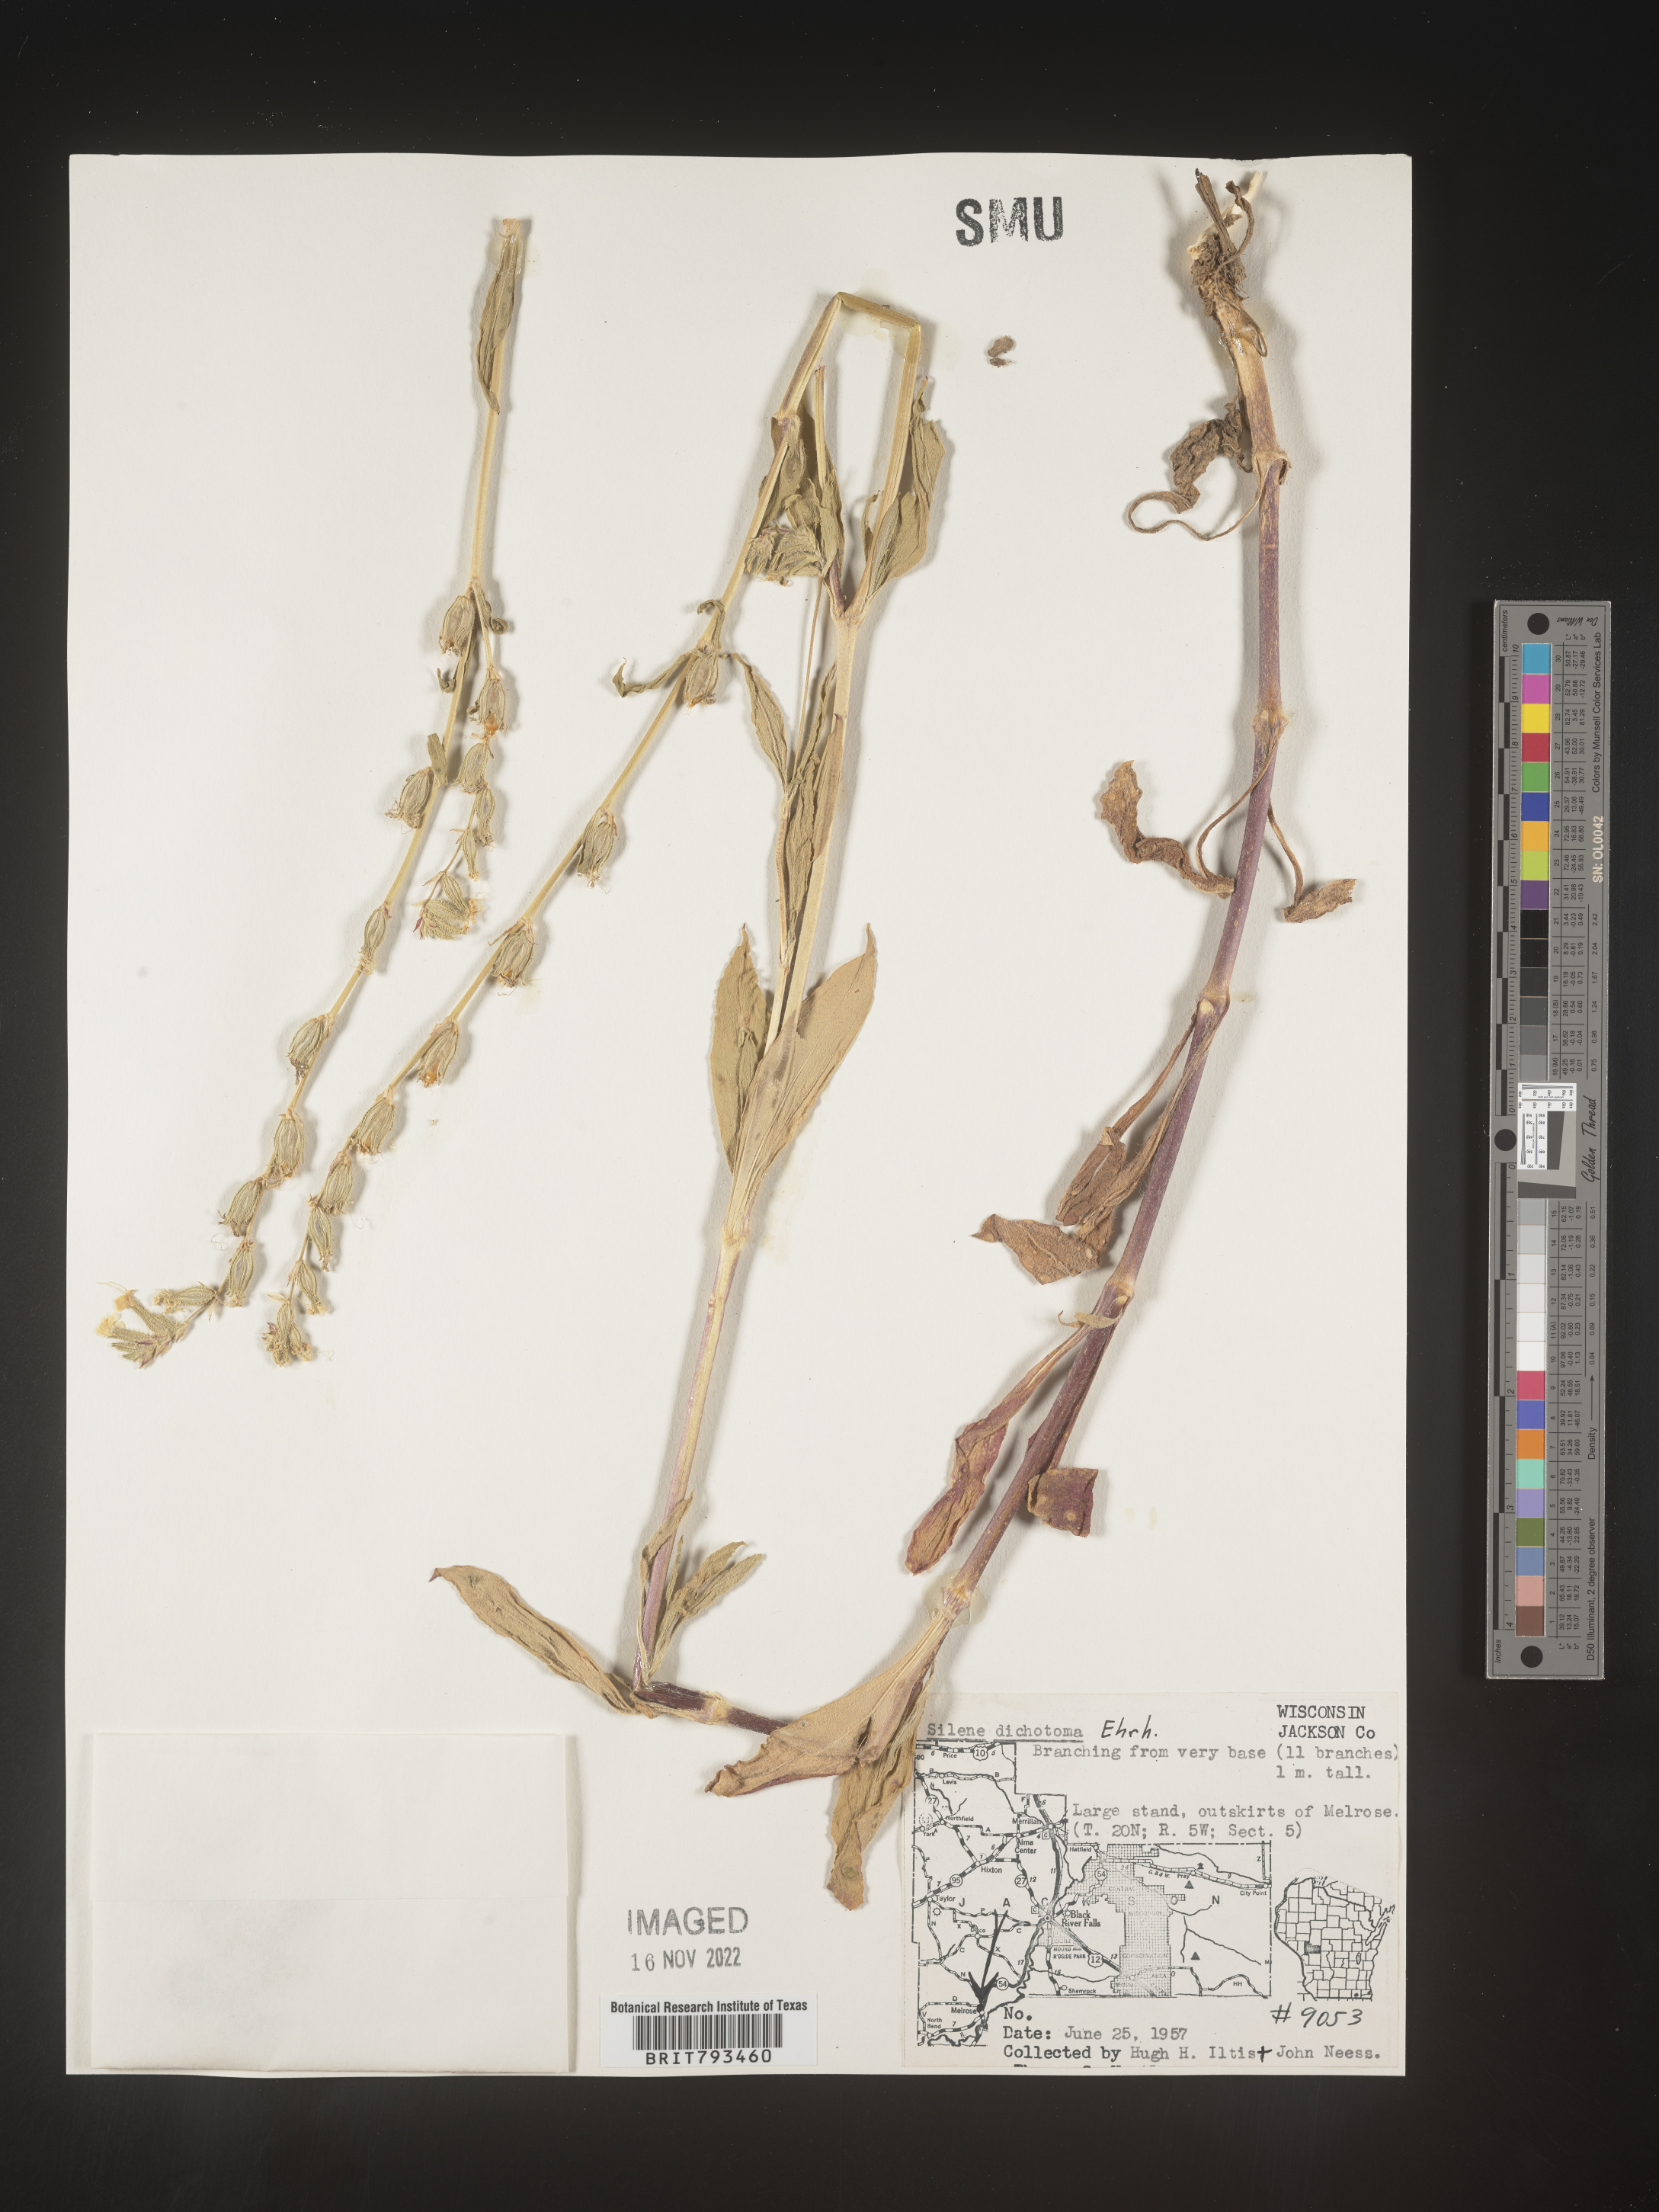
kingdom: Plantae
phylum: Tracheophyta
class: Magnoliopsida
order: Caryophyllales
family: Caryophyllaceae
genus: Silene
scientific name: Silene dichotoma
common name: Forked catchfly
